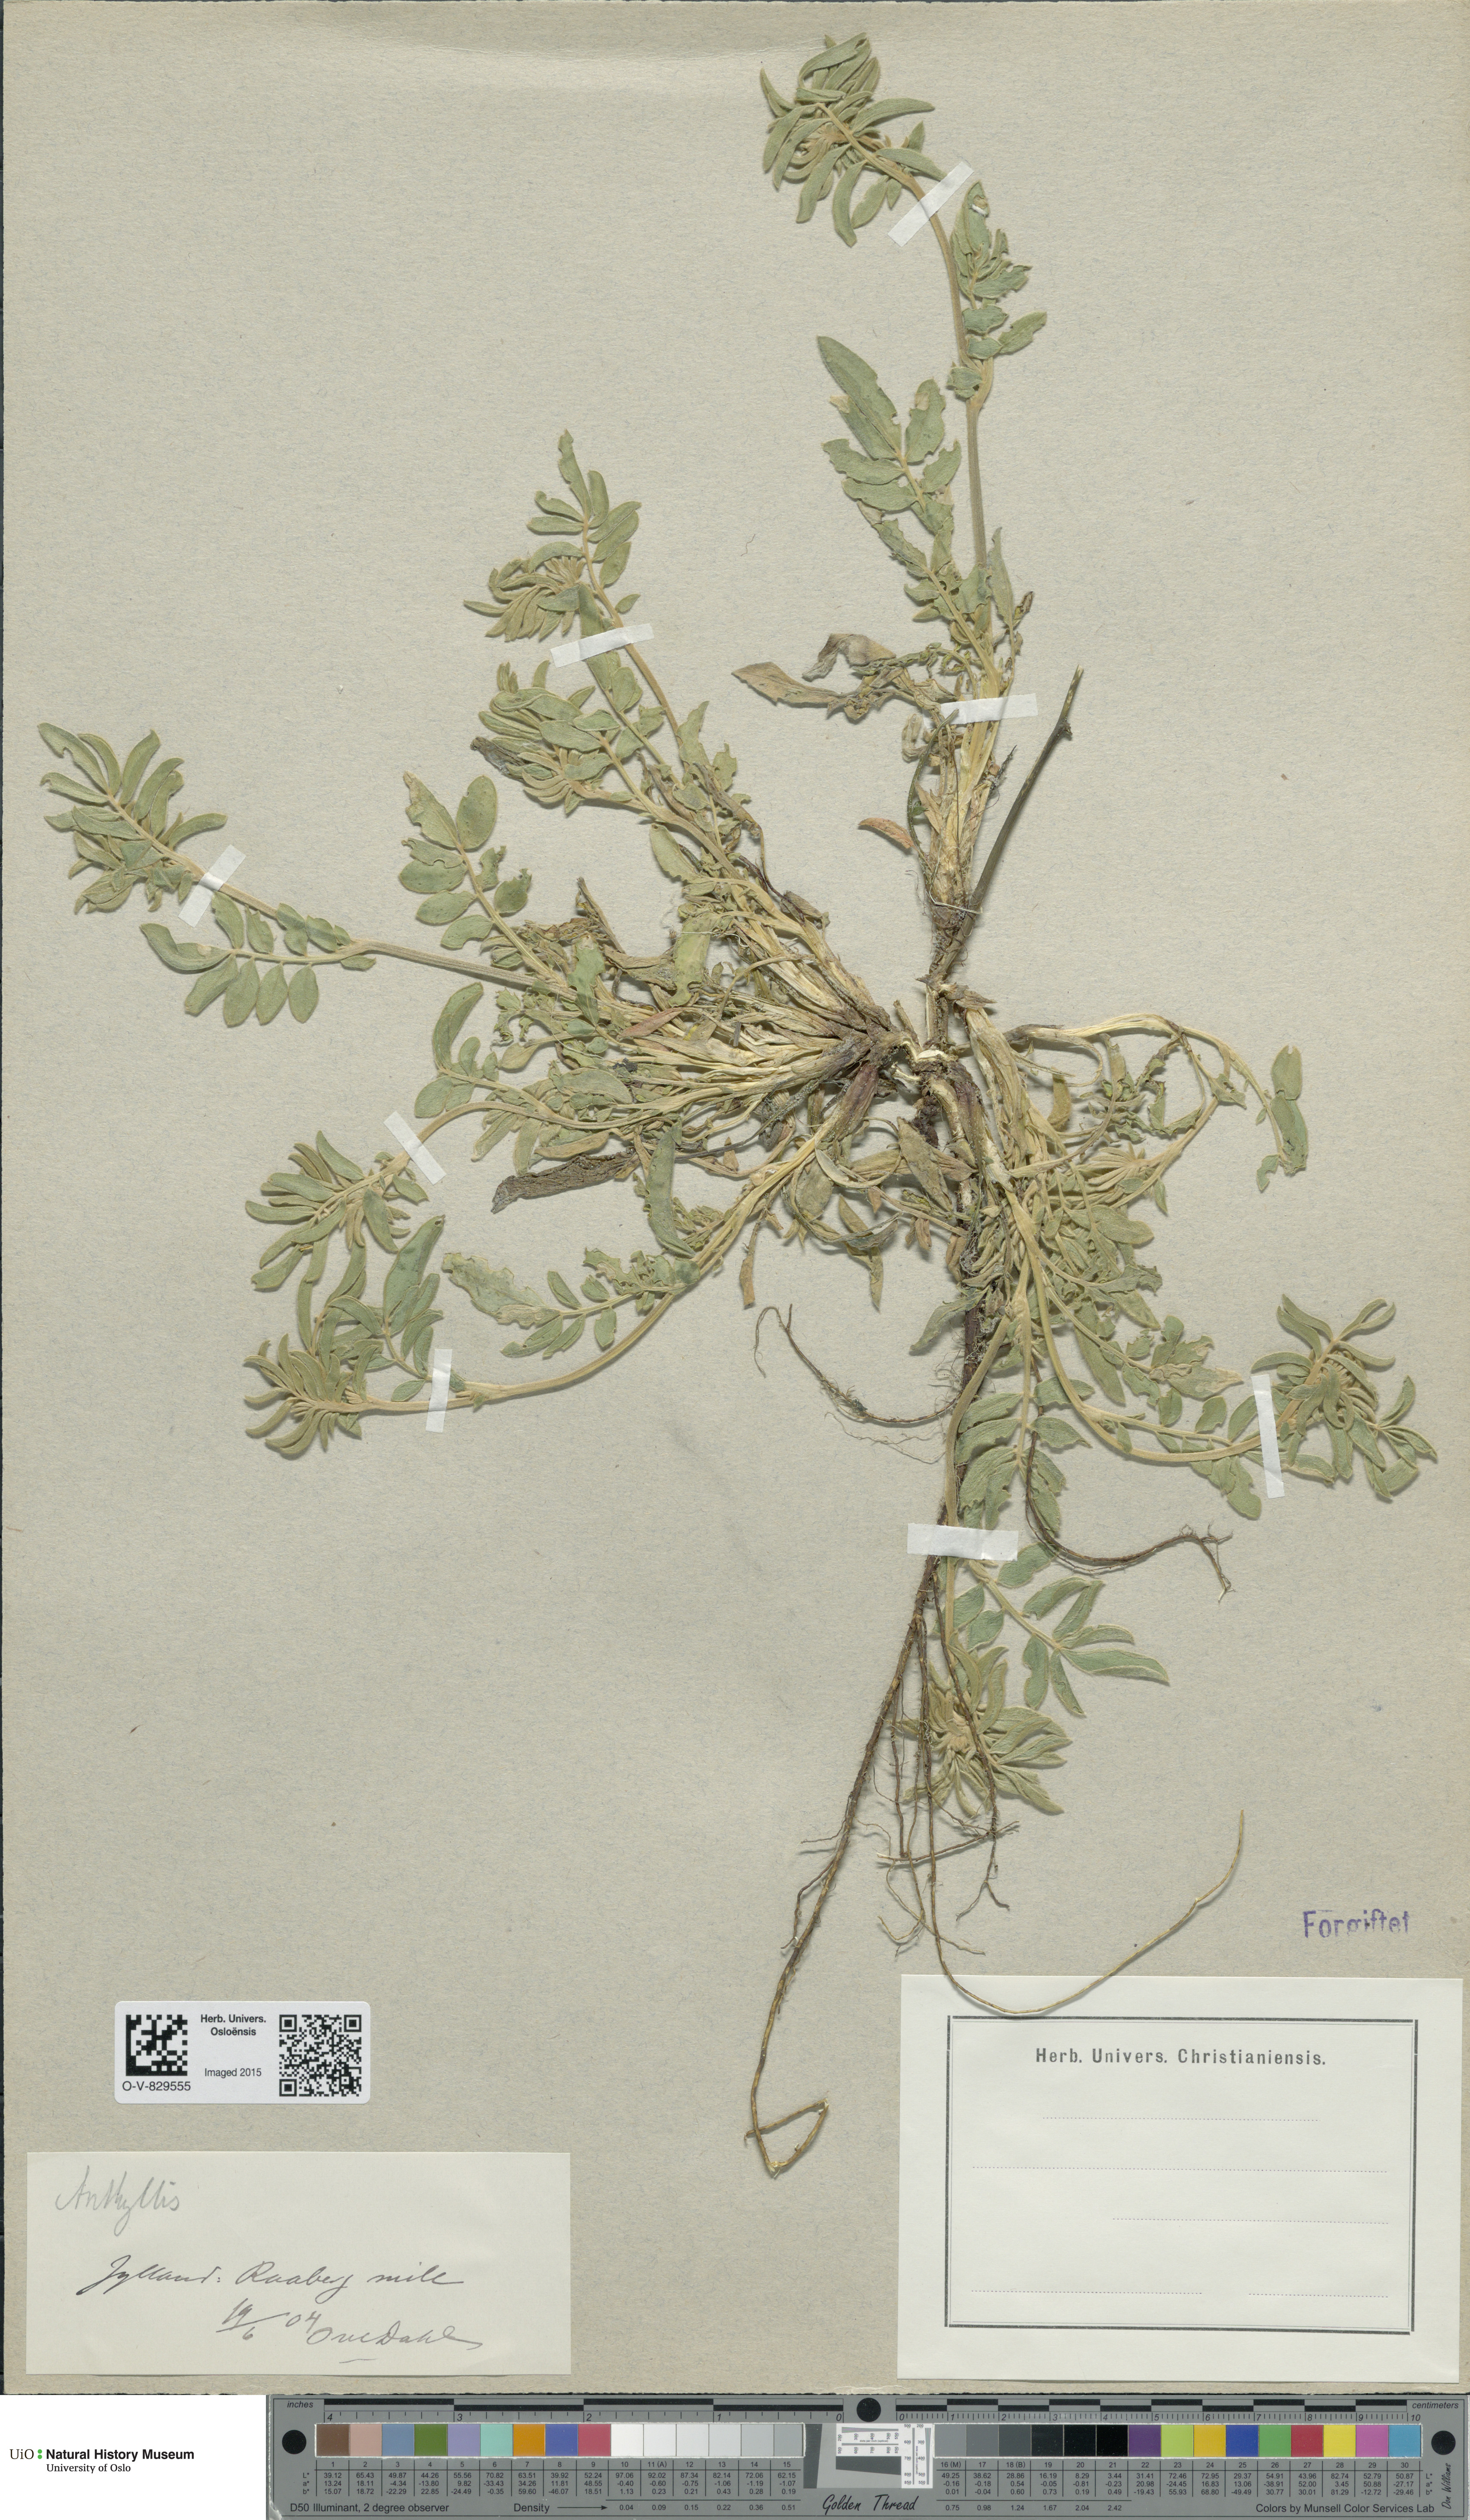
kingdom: Plantae
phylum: Tracheophyta
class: Magnoliopsida
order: Fabales
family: Fabaceae
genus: Anthyllis
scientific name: Anthyllis vulneraria
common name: Kidney vetch
